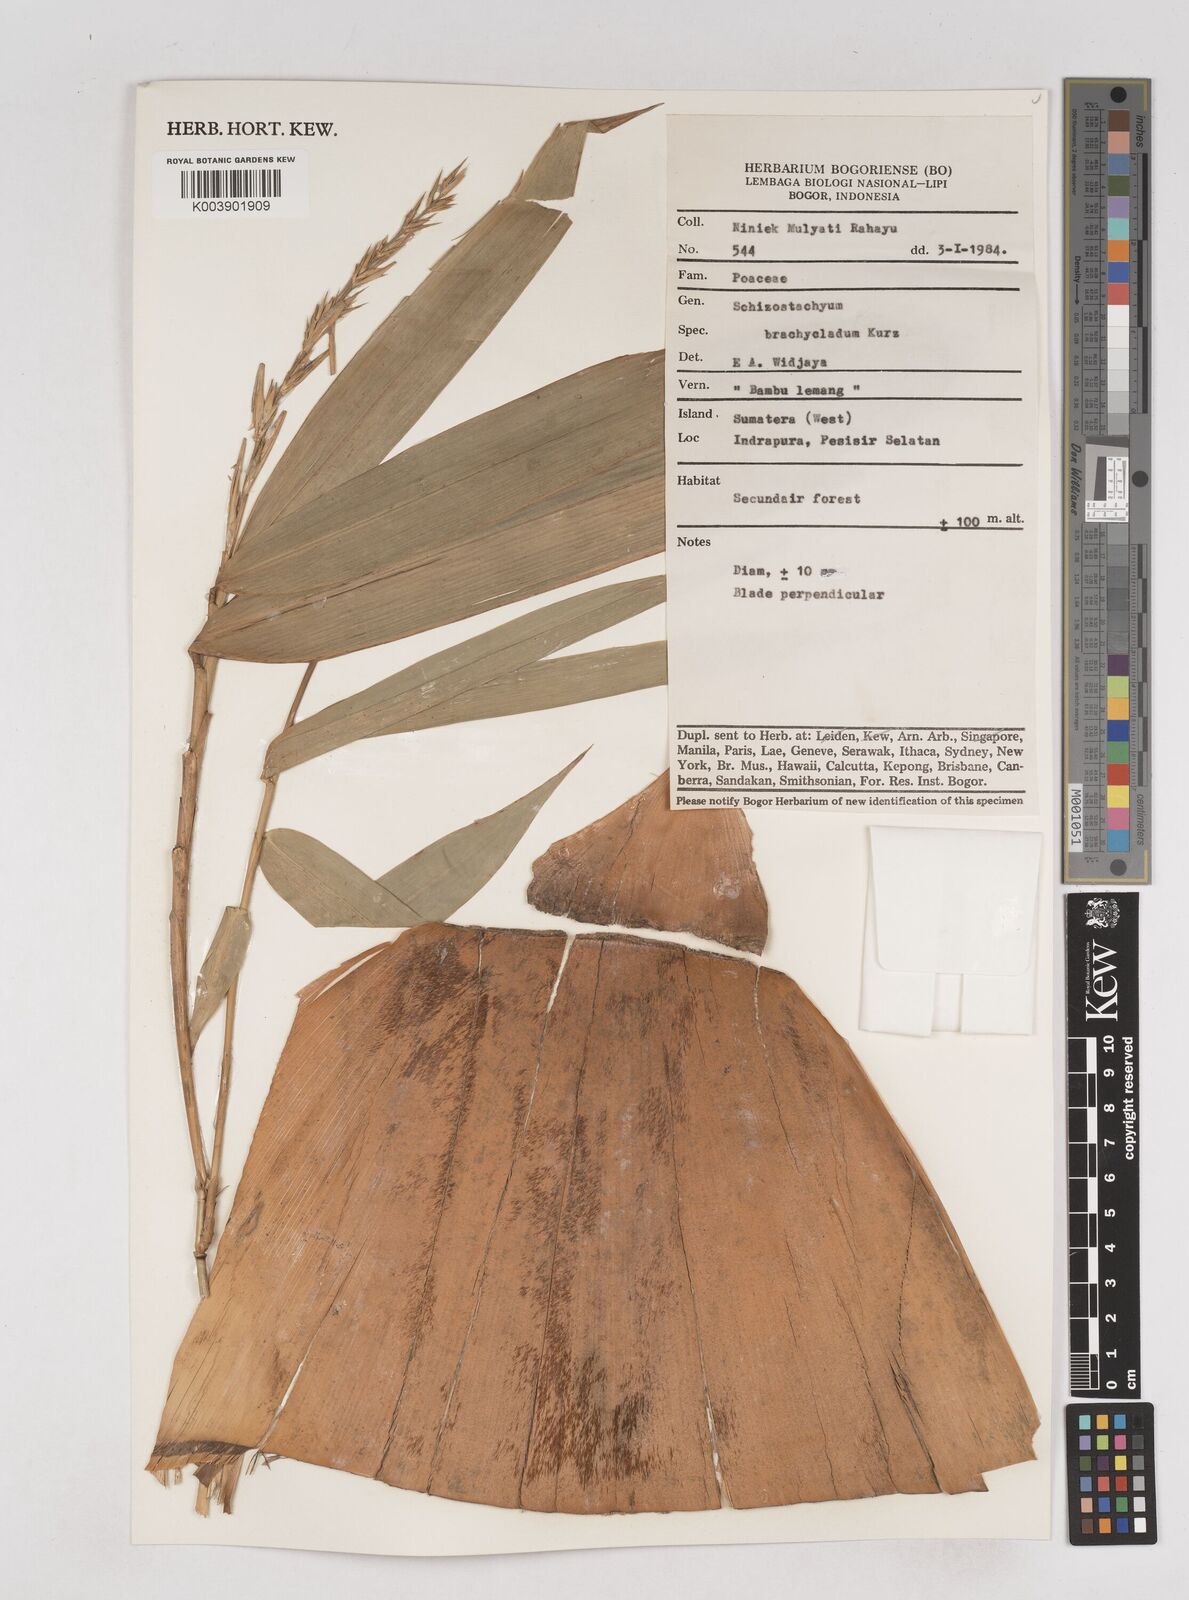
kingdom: Plantae
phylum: Tracheophyta
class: Liliopsida
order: Poales
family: Poaceae
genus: Schizostachyum
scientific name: Schizostachyum brachycladum
